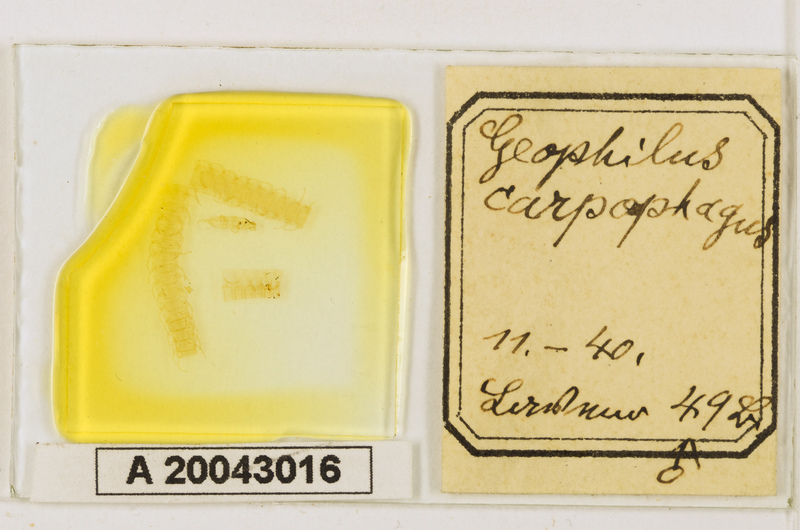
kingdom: Animalia
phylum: Arthropoda
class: Chilopoda
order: Geophilomorpha
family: Geophilidae
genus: Geophilus
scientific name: Geophilus carpophagus
